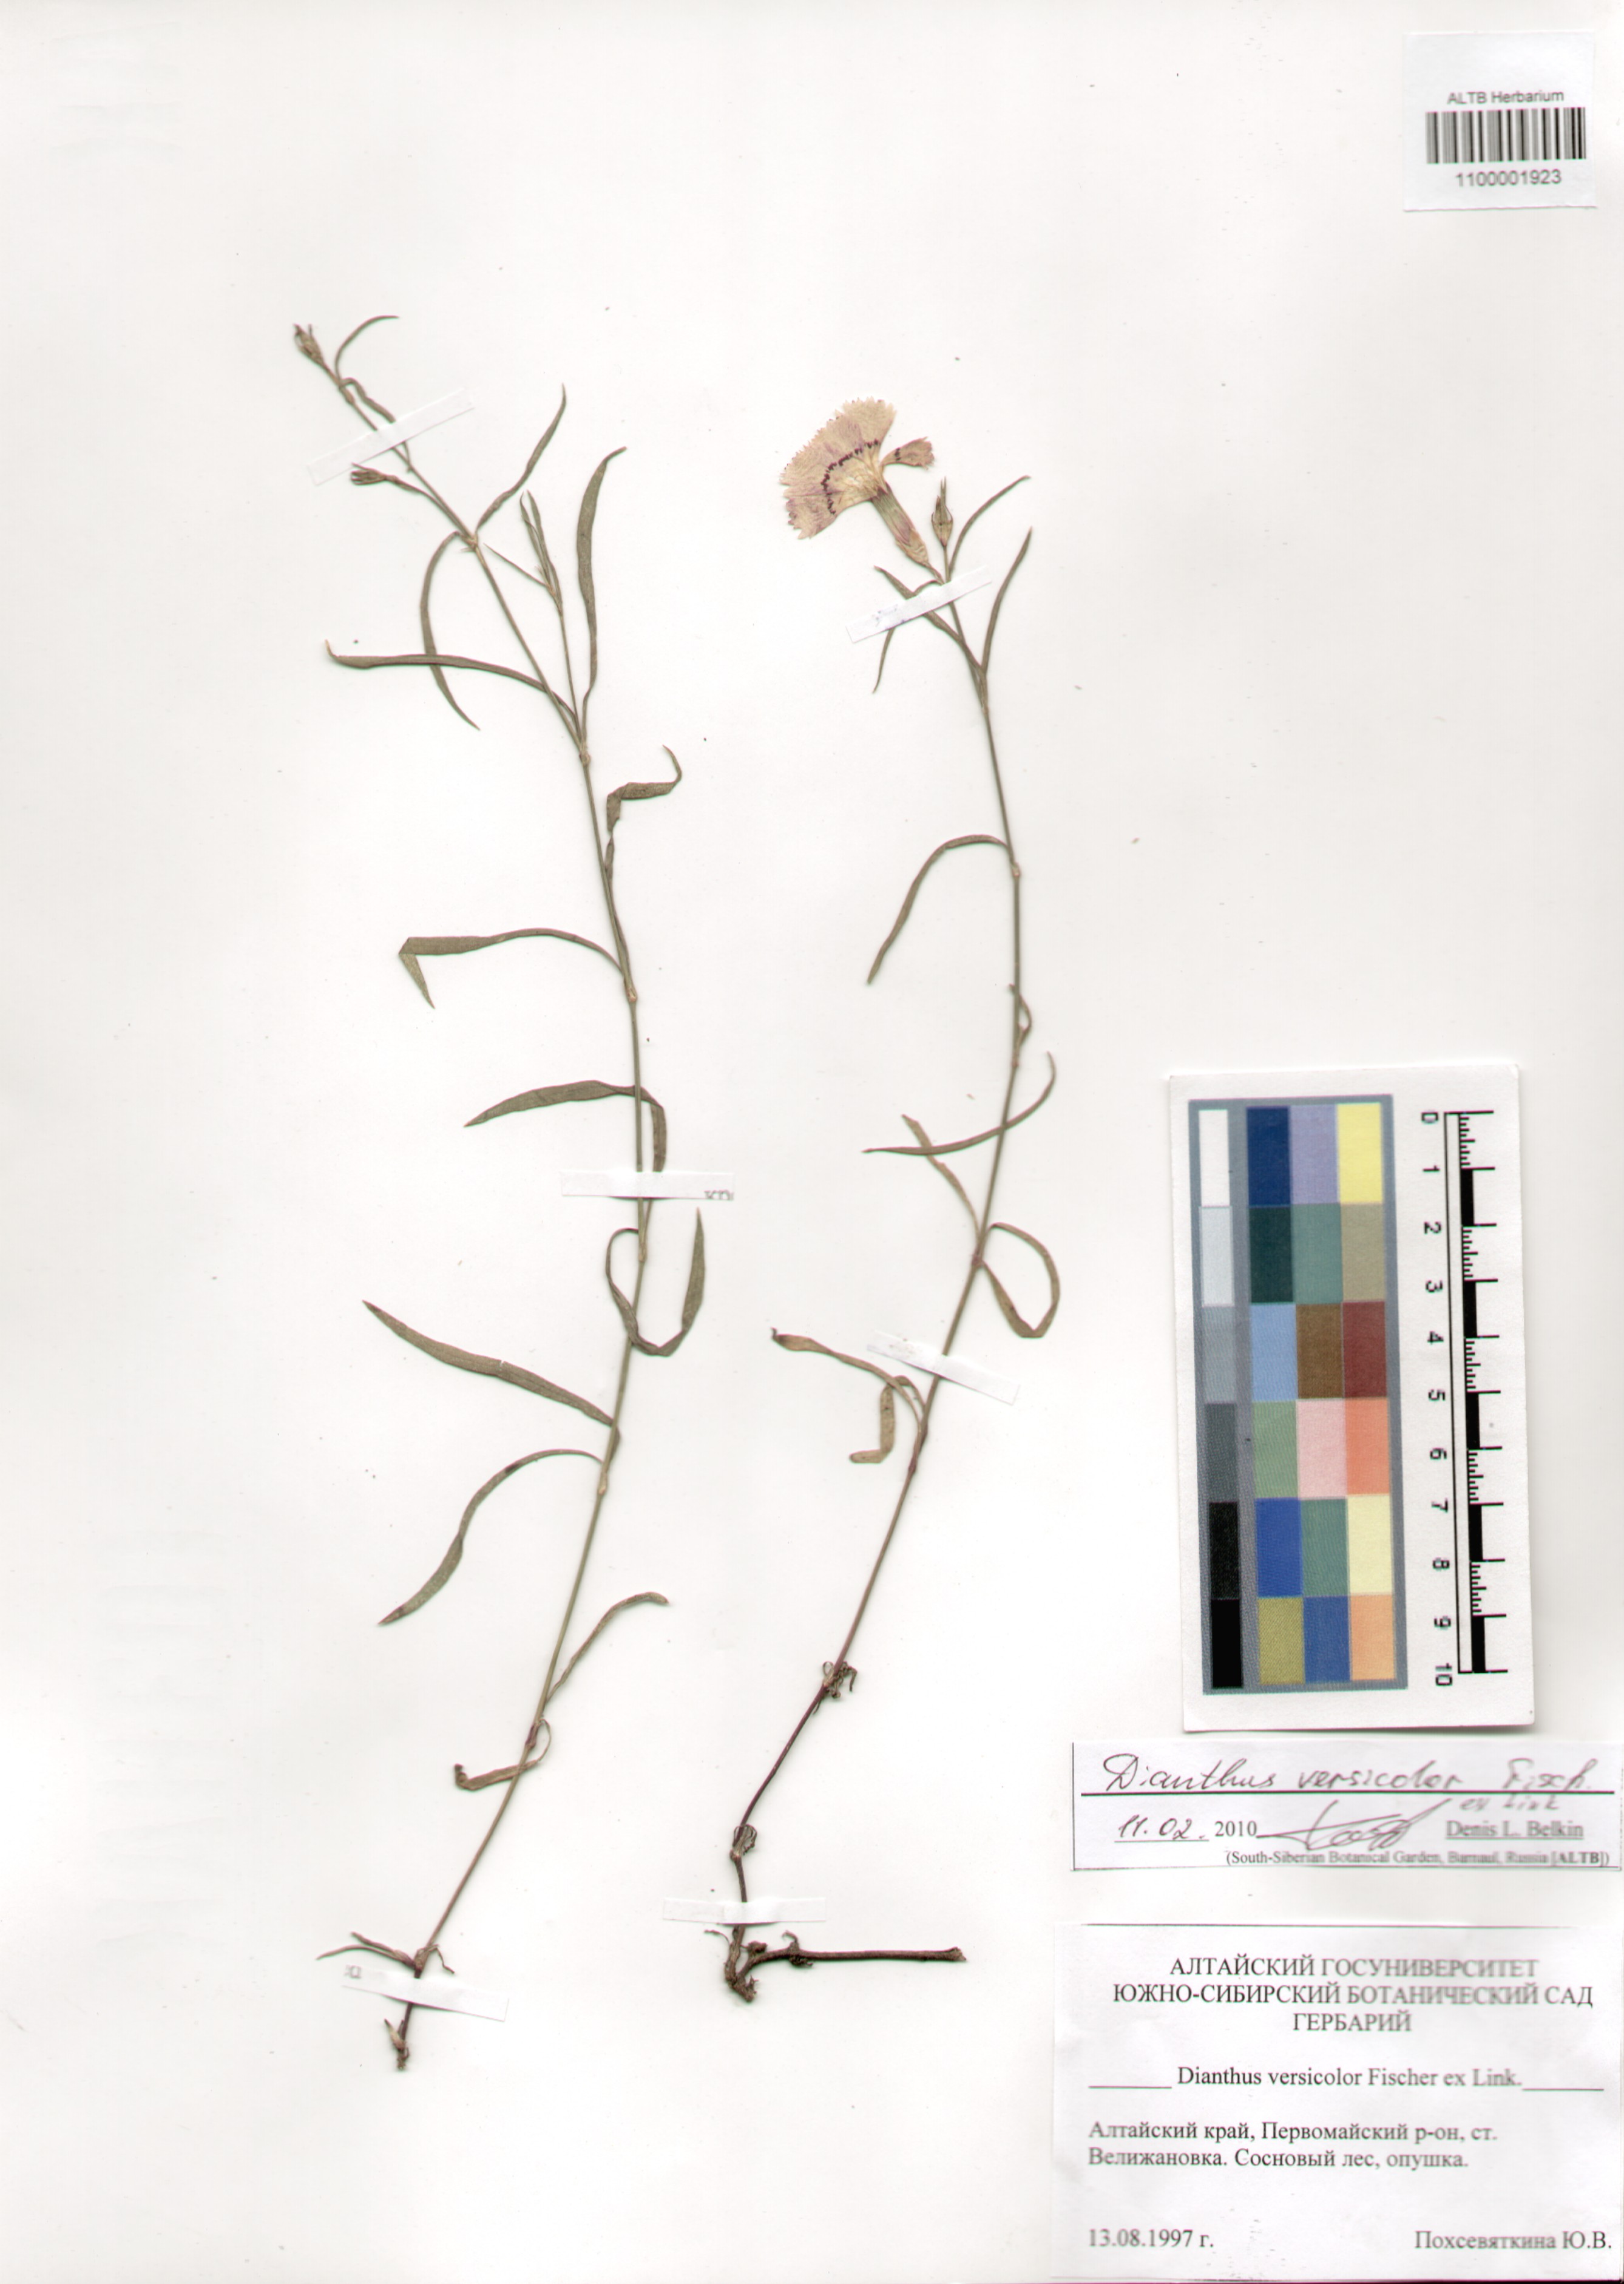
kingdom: Plantae
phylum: Tracheophyta
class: Magnoliopsida
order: Caryophyllales
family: Caryophyllaceae
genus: Dianthus
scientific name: Dianthus chinensis
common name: Rainbow pink
